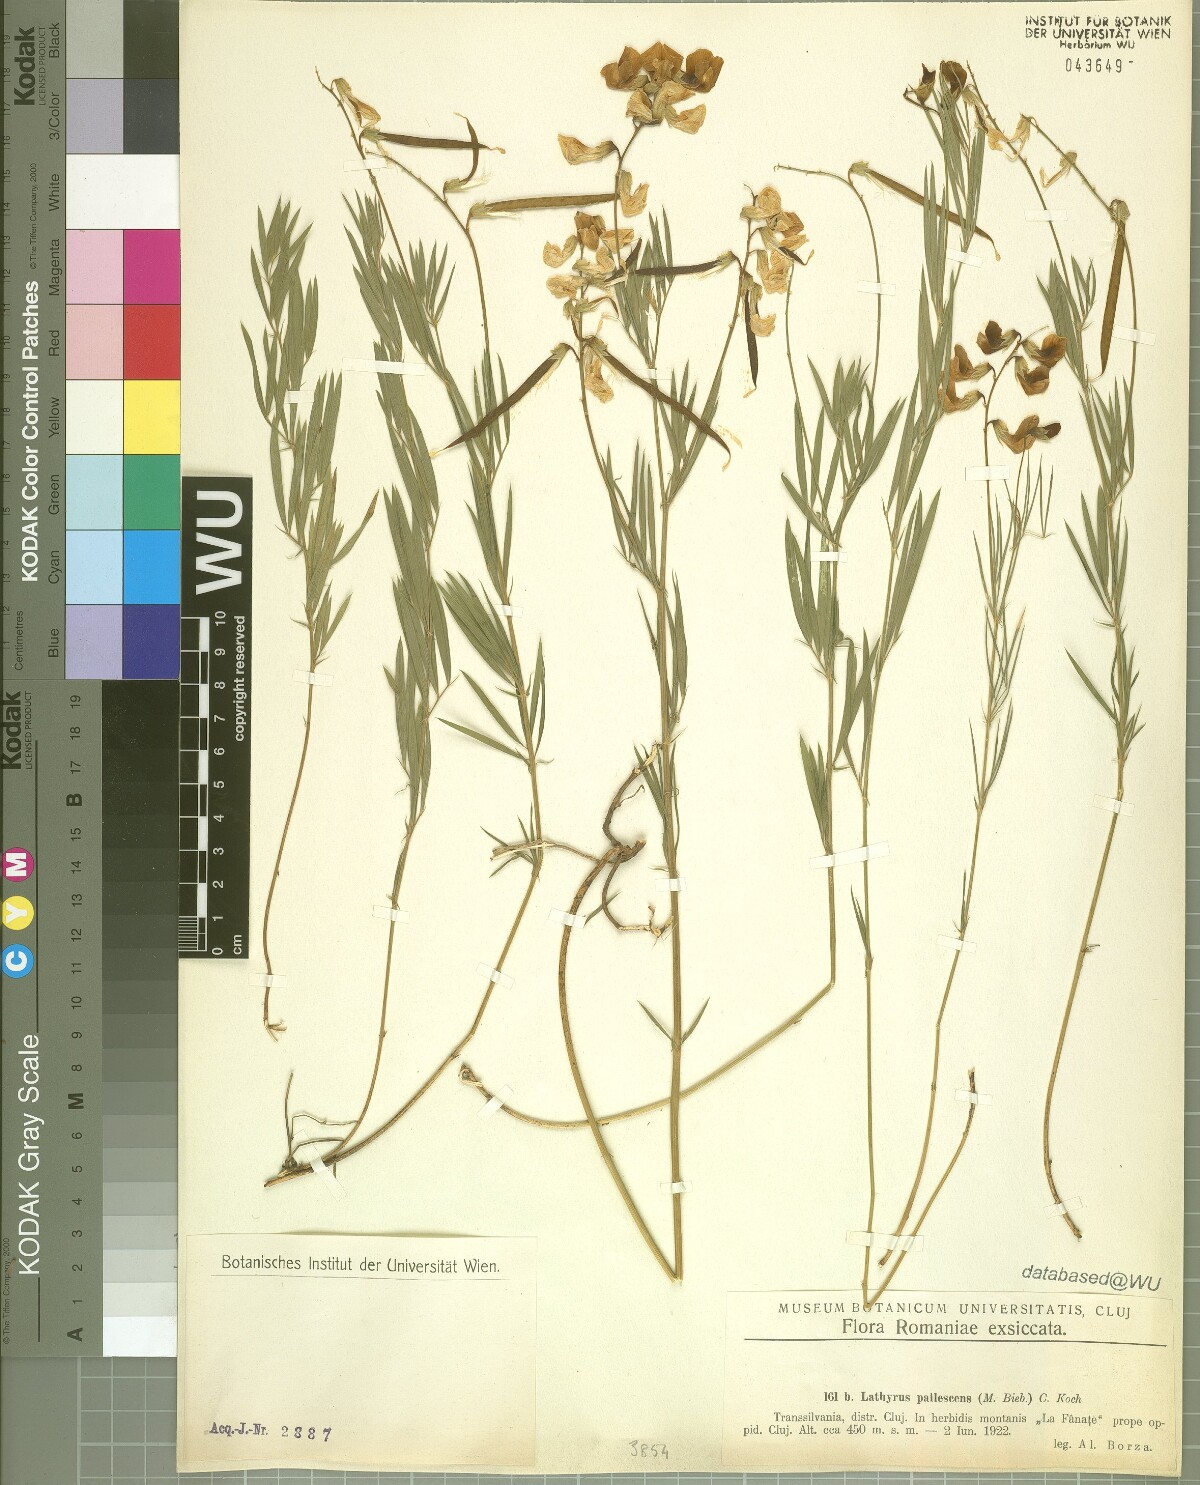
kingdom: Plantae
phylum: Tracheophyta
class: Magnoliopsida
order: Fabales
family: Fabaceae
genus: Lathyrus
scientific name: Lathyrus pallescens
